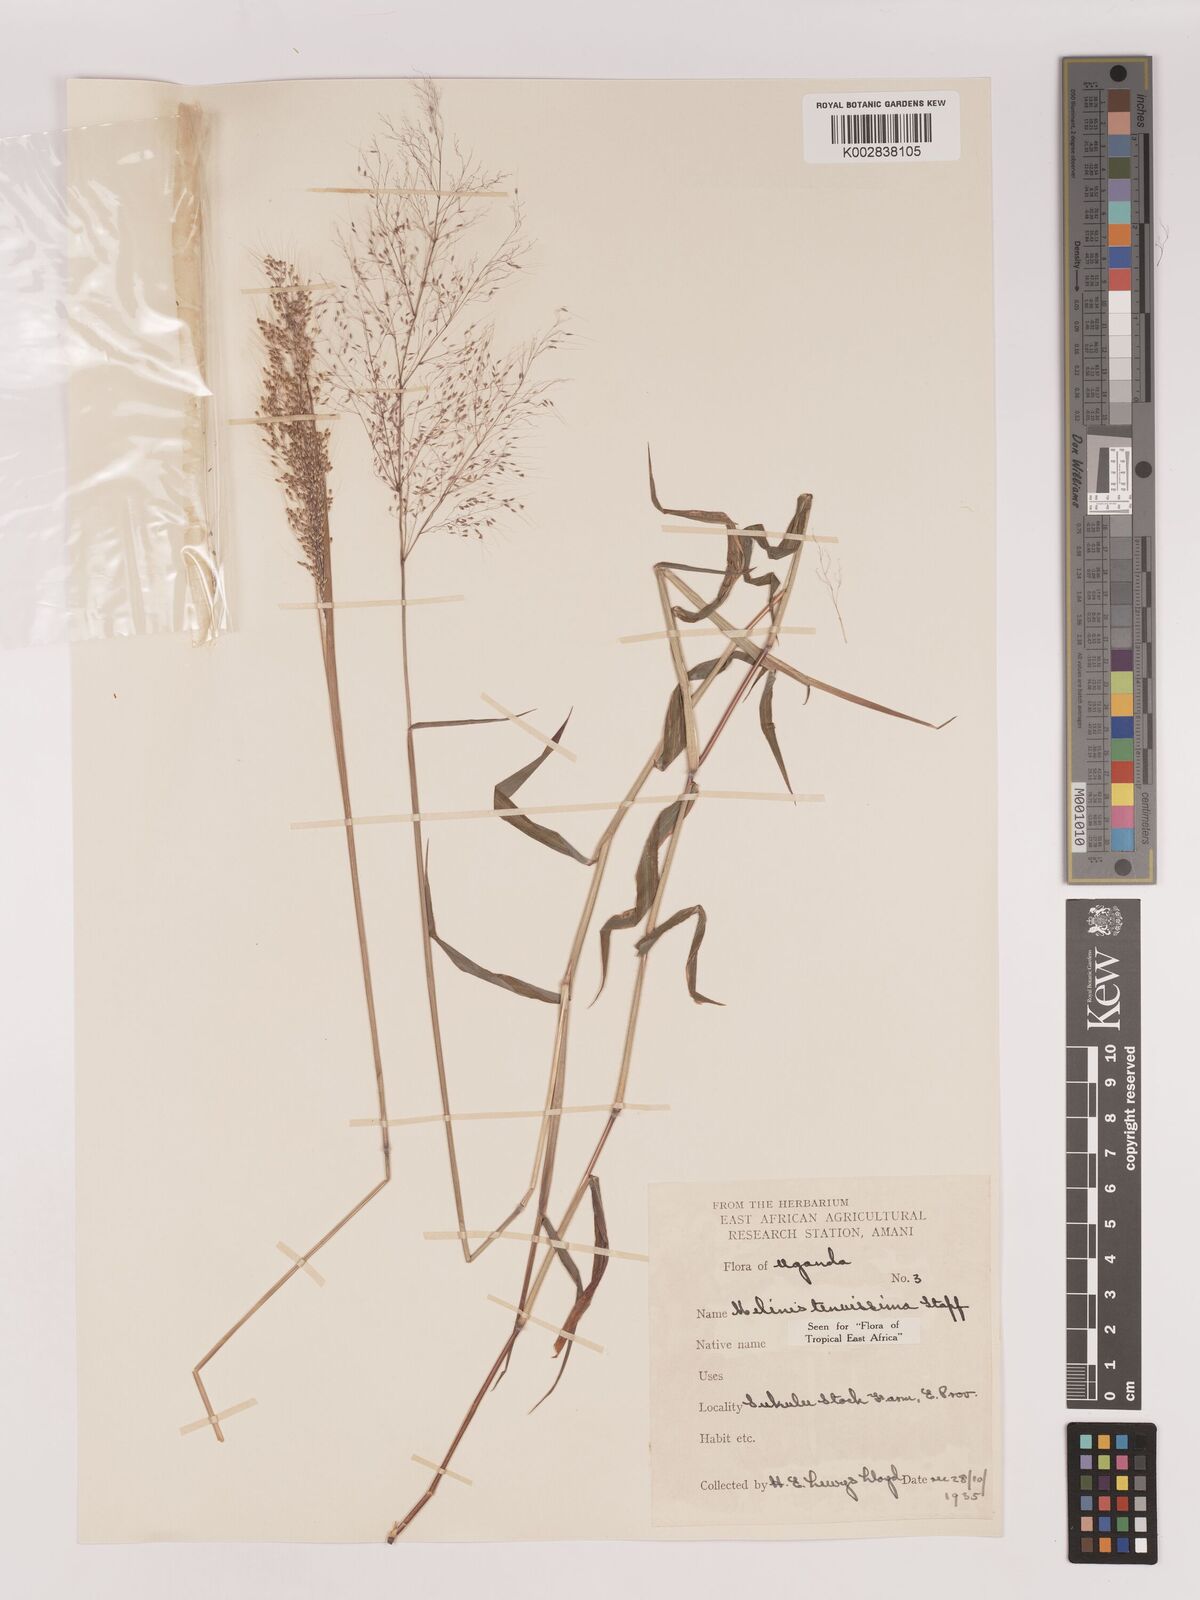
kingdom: Plantae
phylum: Tracheophyta
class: Liliopsida
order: Poales
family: Poaceae
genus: Melinis
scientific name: Melinis tenuissima
